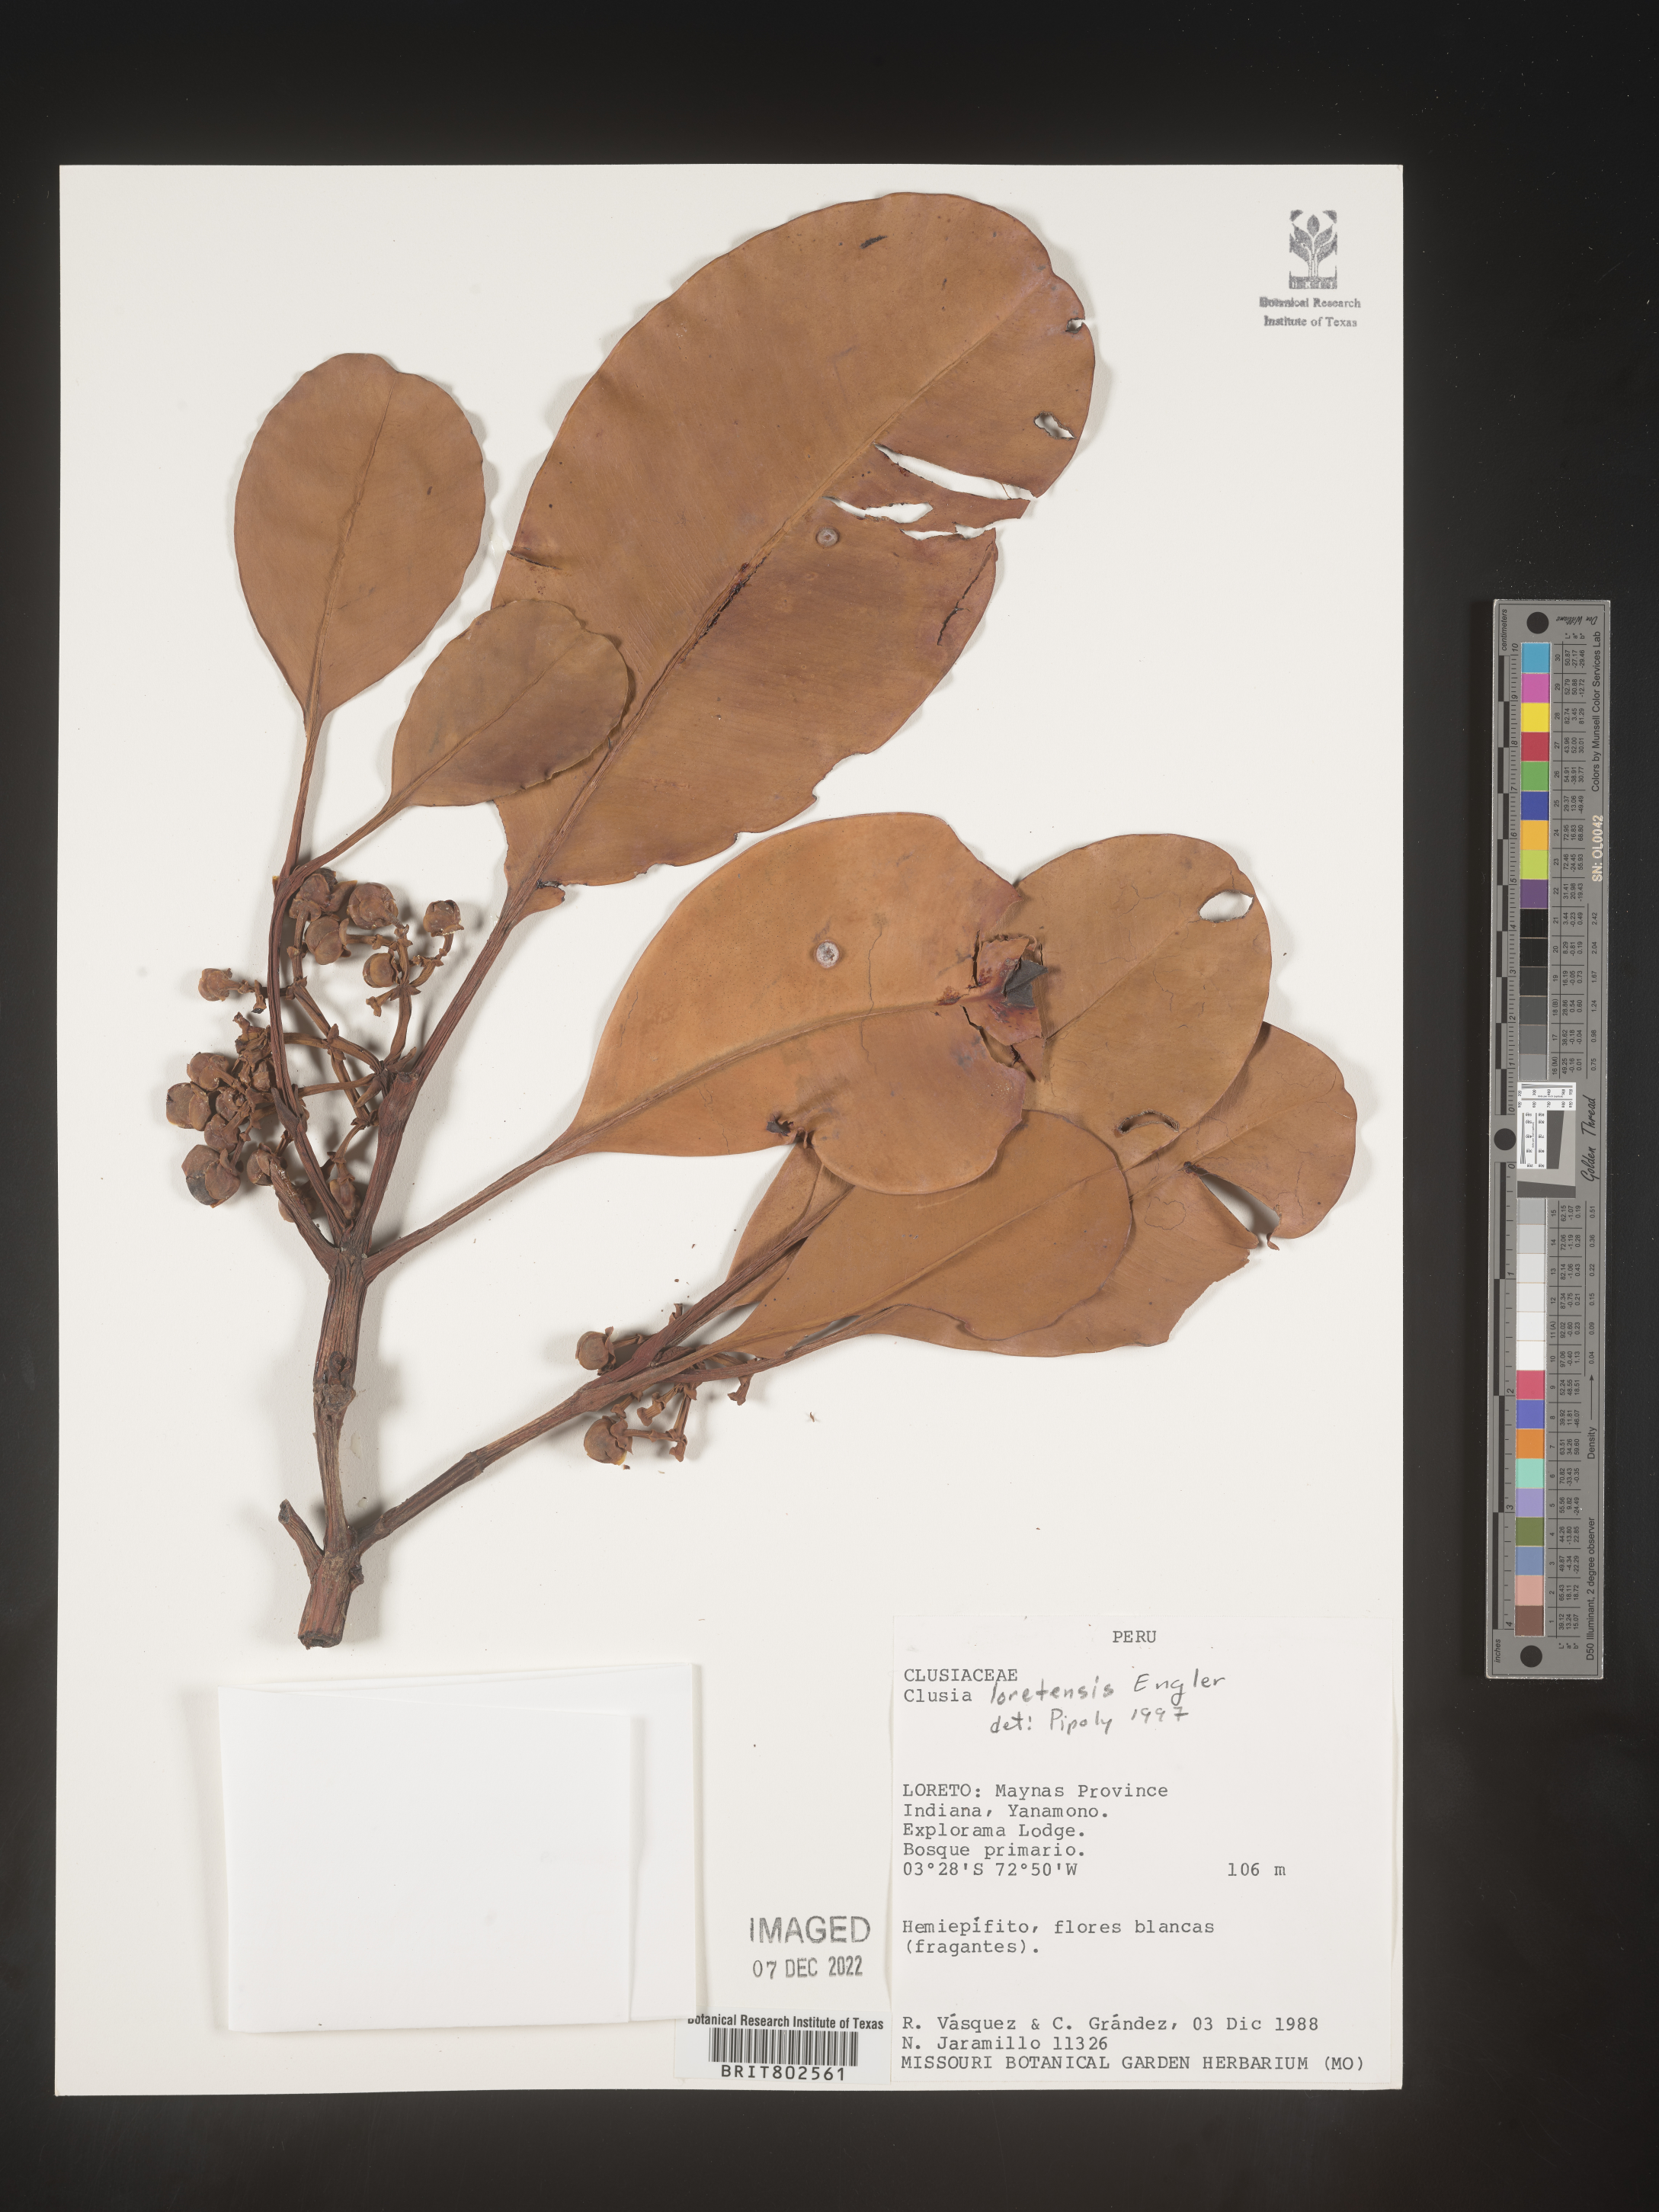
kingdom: Plantae
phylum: Tracheophyta
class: Magnoliopsida
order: Malpighiales
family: Clusiaceae
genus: Clusia
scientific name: Clusia loretensis
